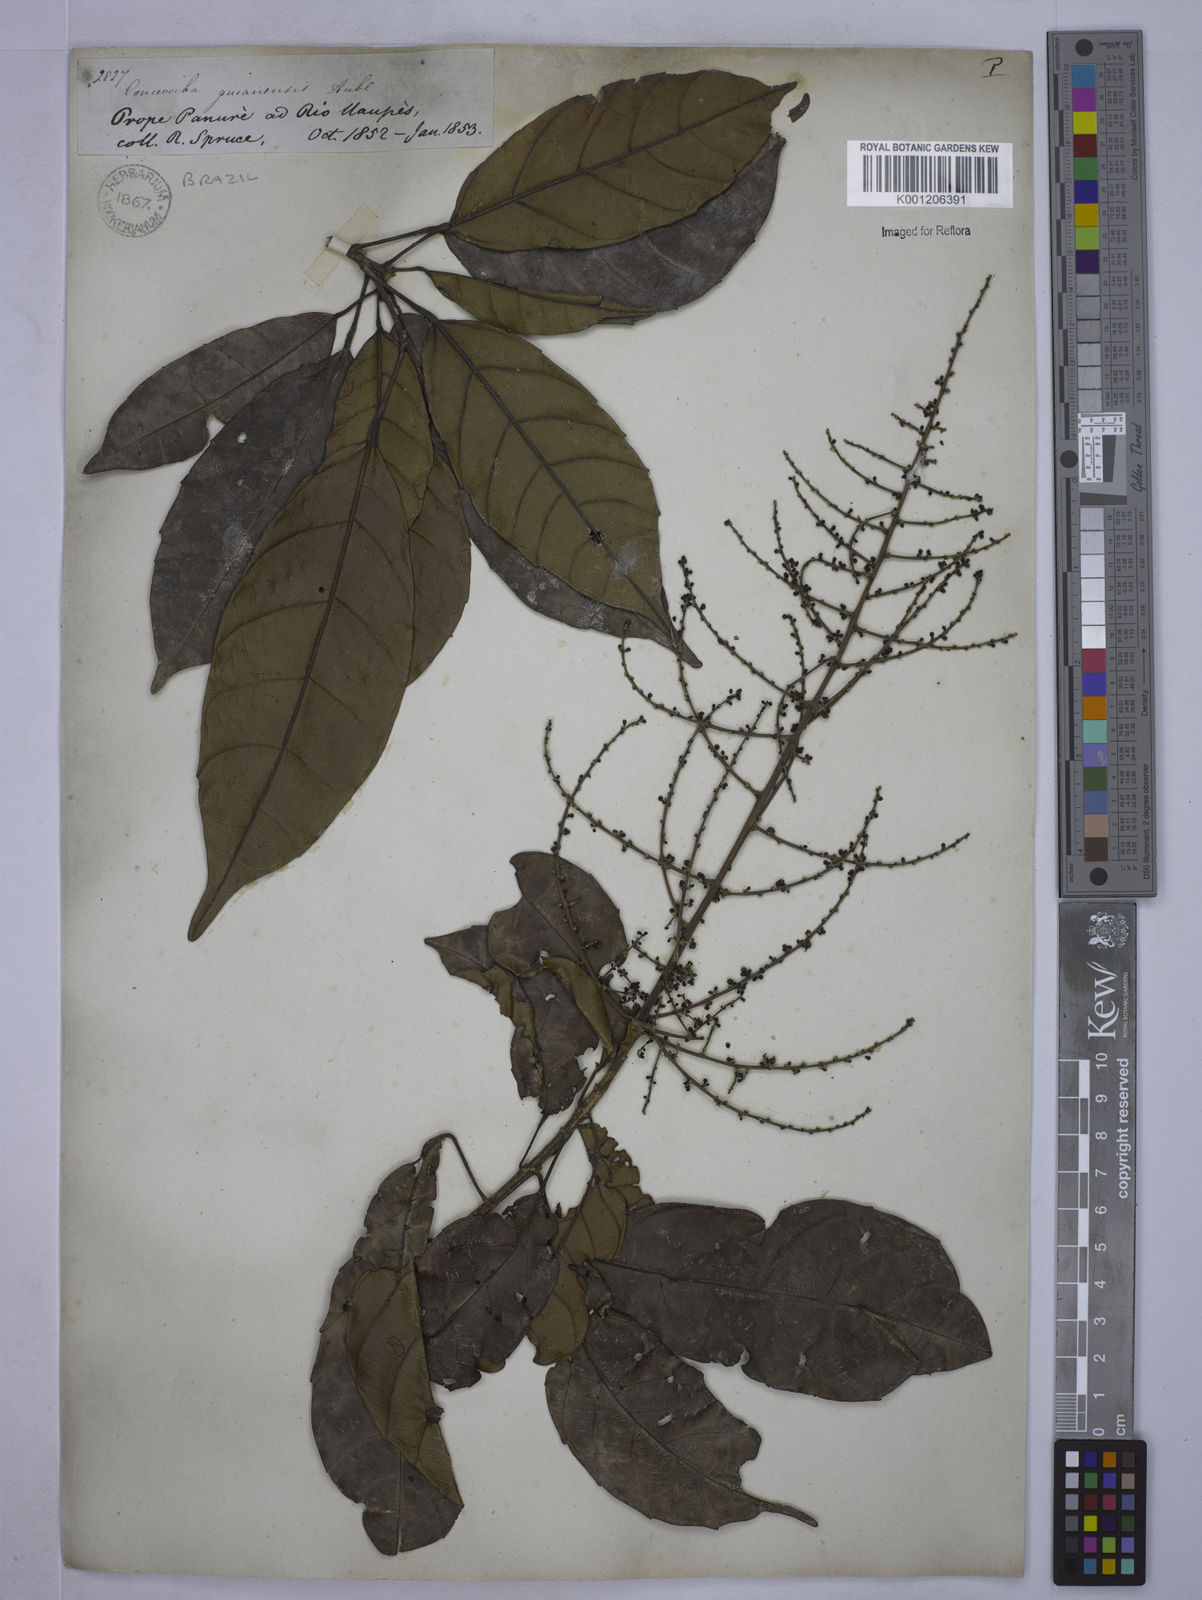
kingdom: Plantae
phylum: Tracheophyta
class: Magnoliopsida
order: Malpighiales
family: Euphorbiaceae
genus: Conceveiba
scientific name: Conceveiba guianensis
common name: Poatoru
